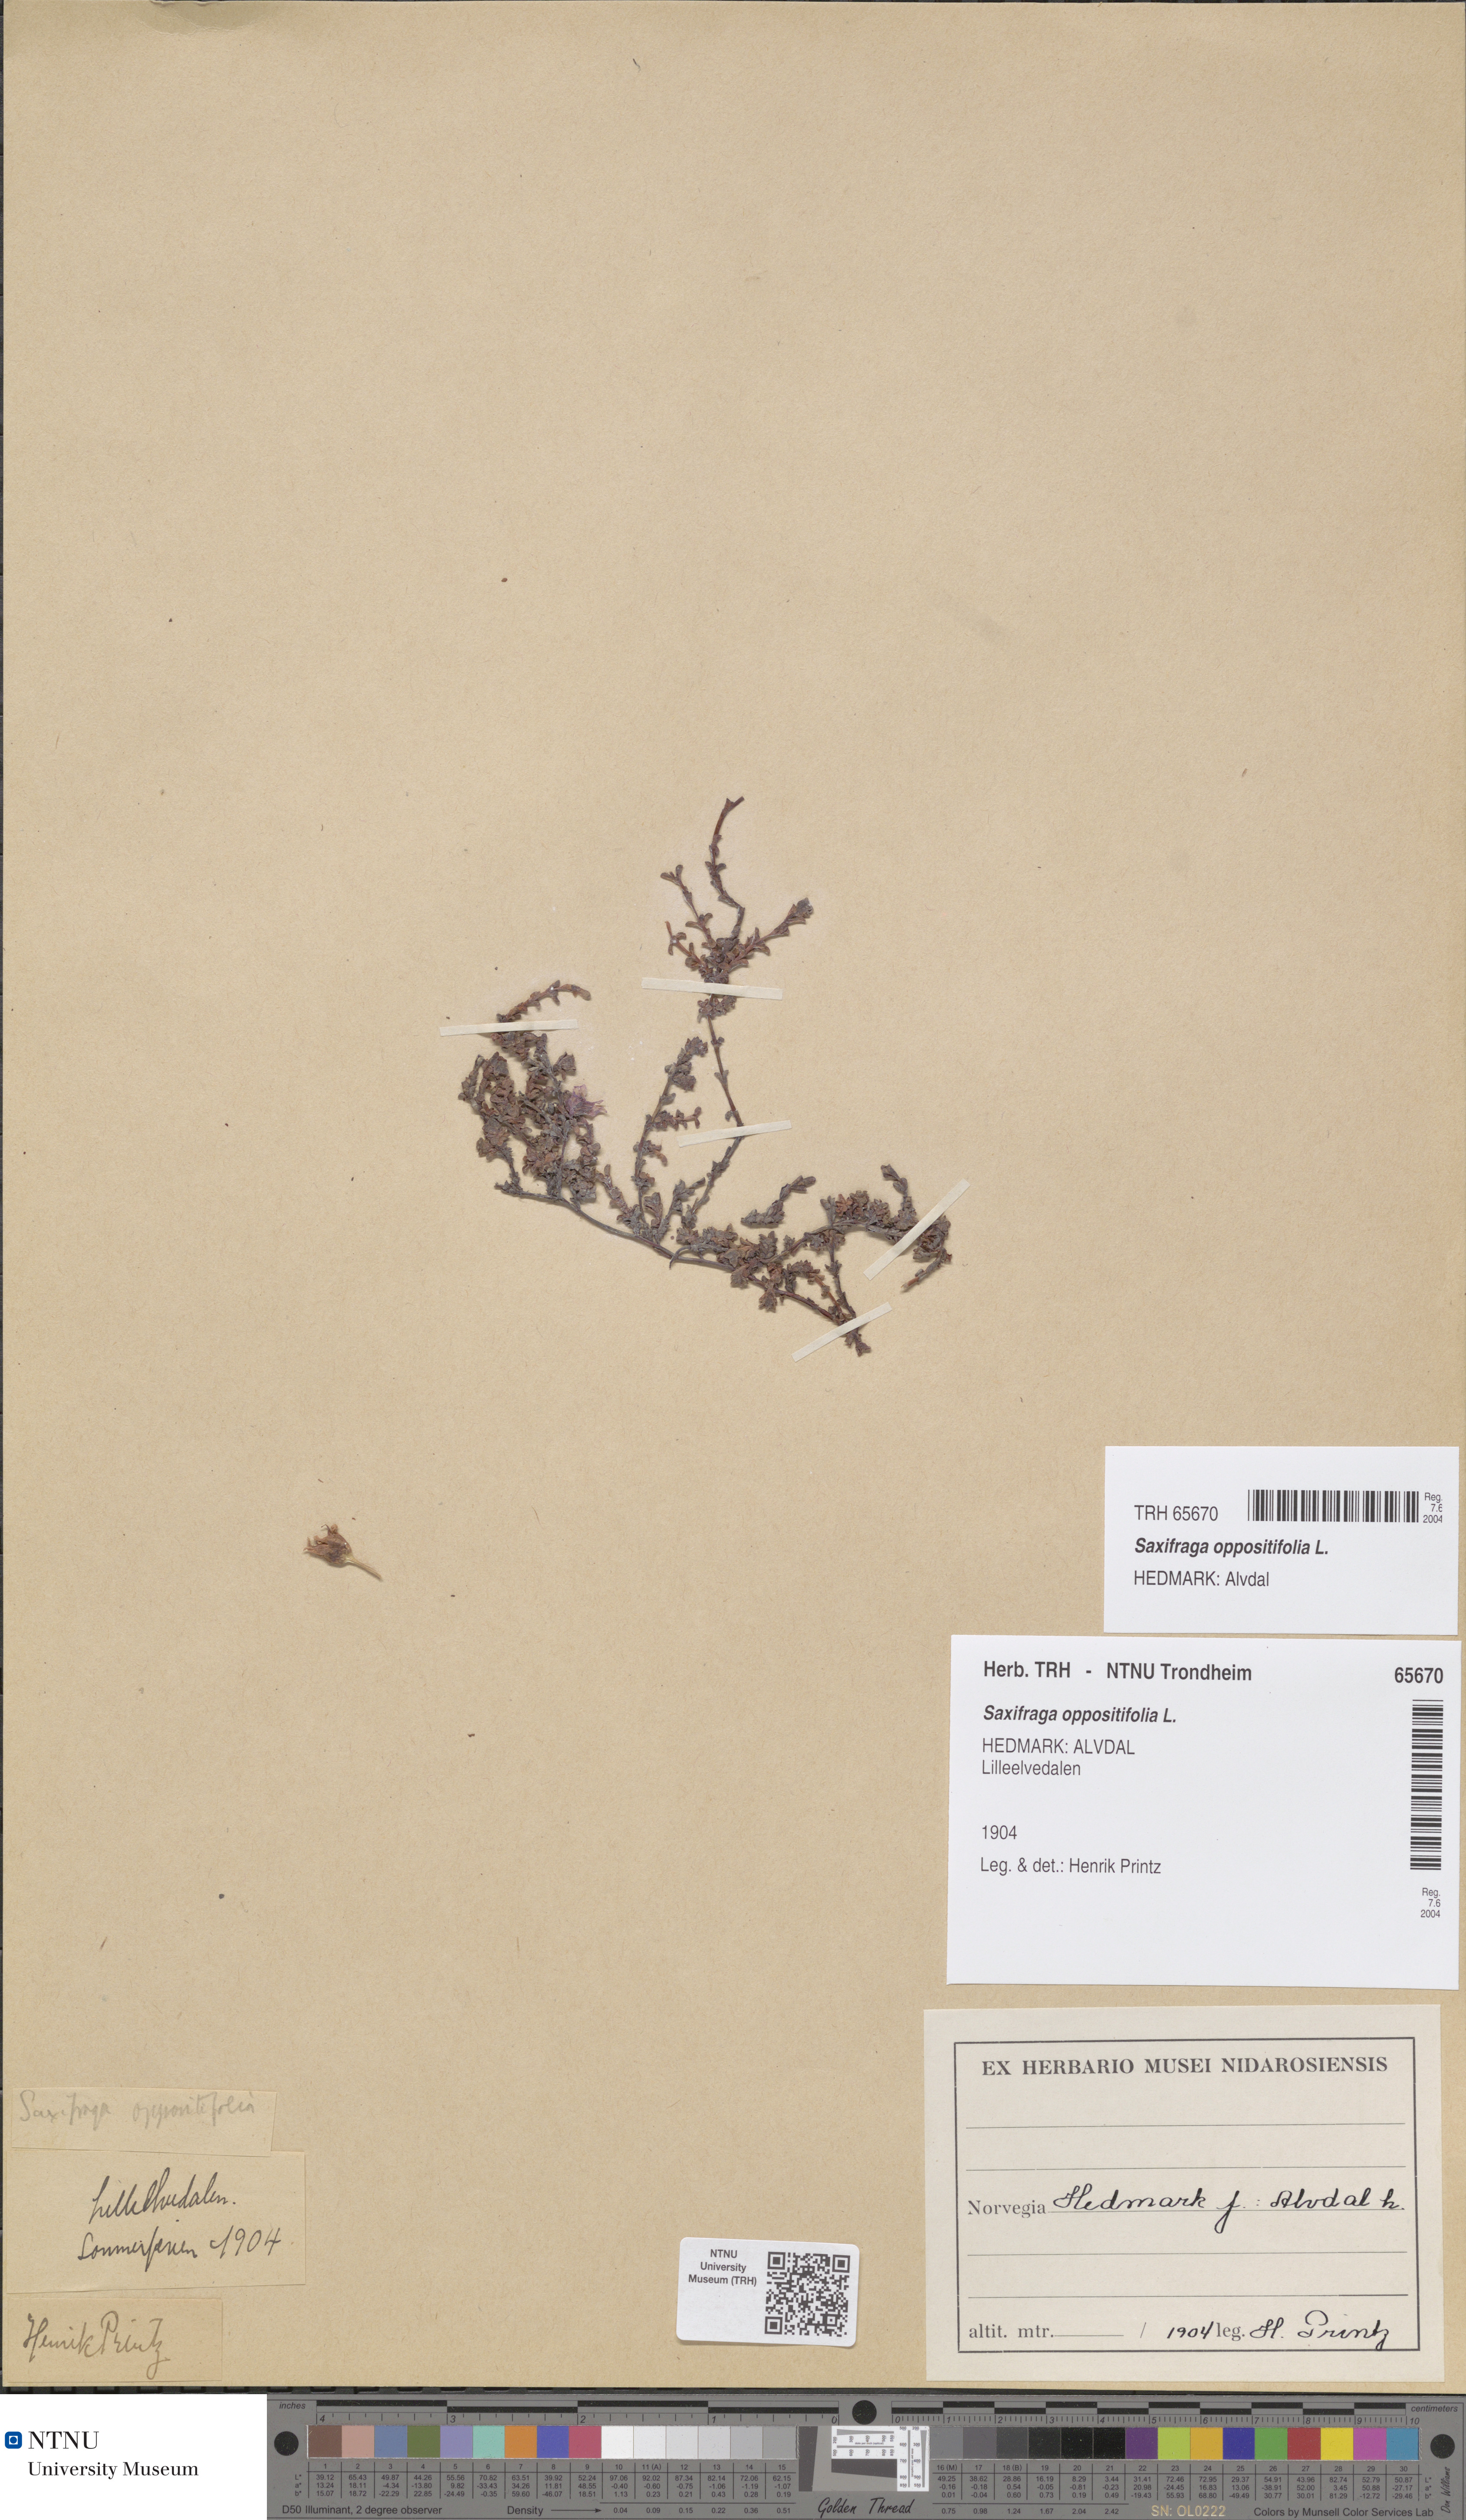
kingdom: Plantae
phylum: Tracheophyta
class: Magnoliopsida
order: Saxifragales
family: Saxifragaceae
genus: Saxifraga
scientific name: Saxifraga oppositifolia
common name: Purple saxifrage
